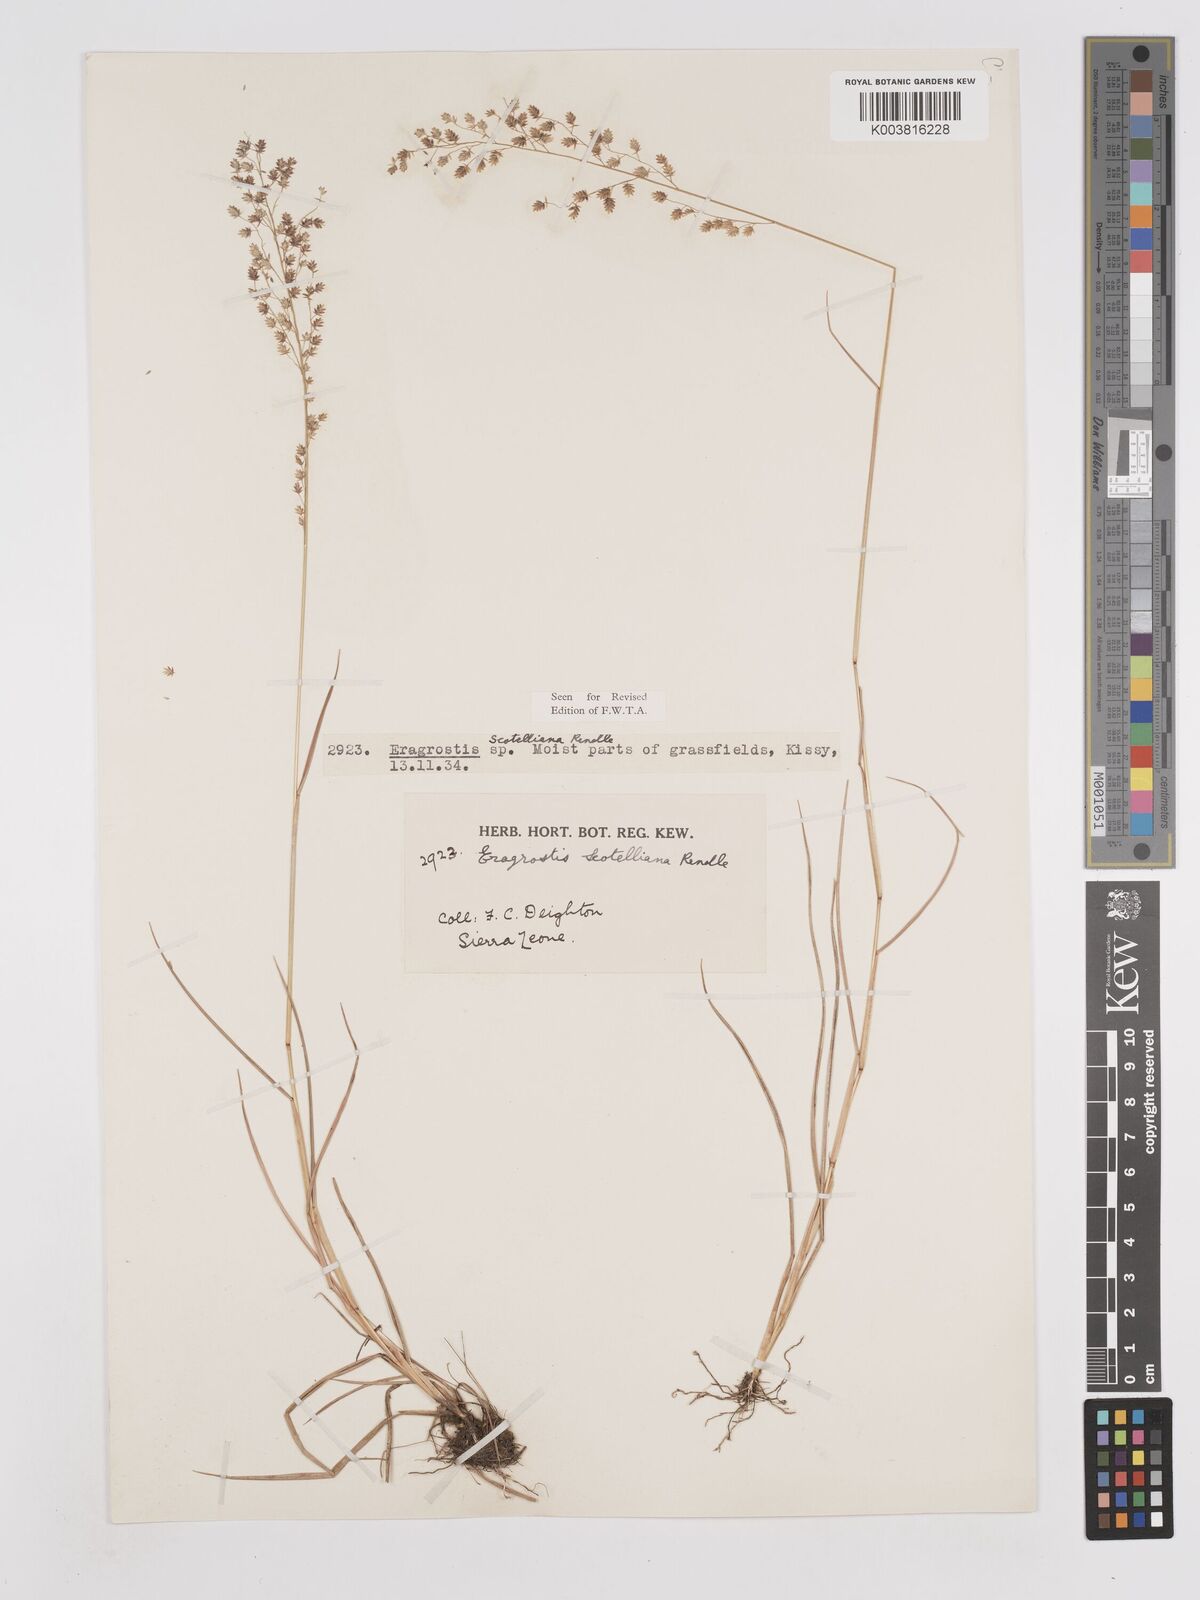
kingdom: Plantae
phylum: Tracheophyta
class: Liliopsida
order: Poales
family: Poaceae
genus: Eragrostis
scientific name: Eragrostis scotelliana
